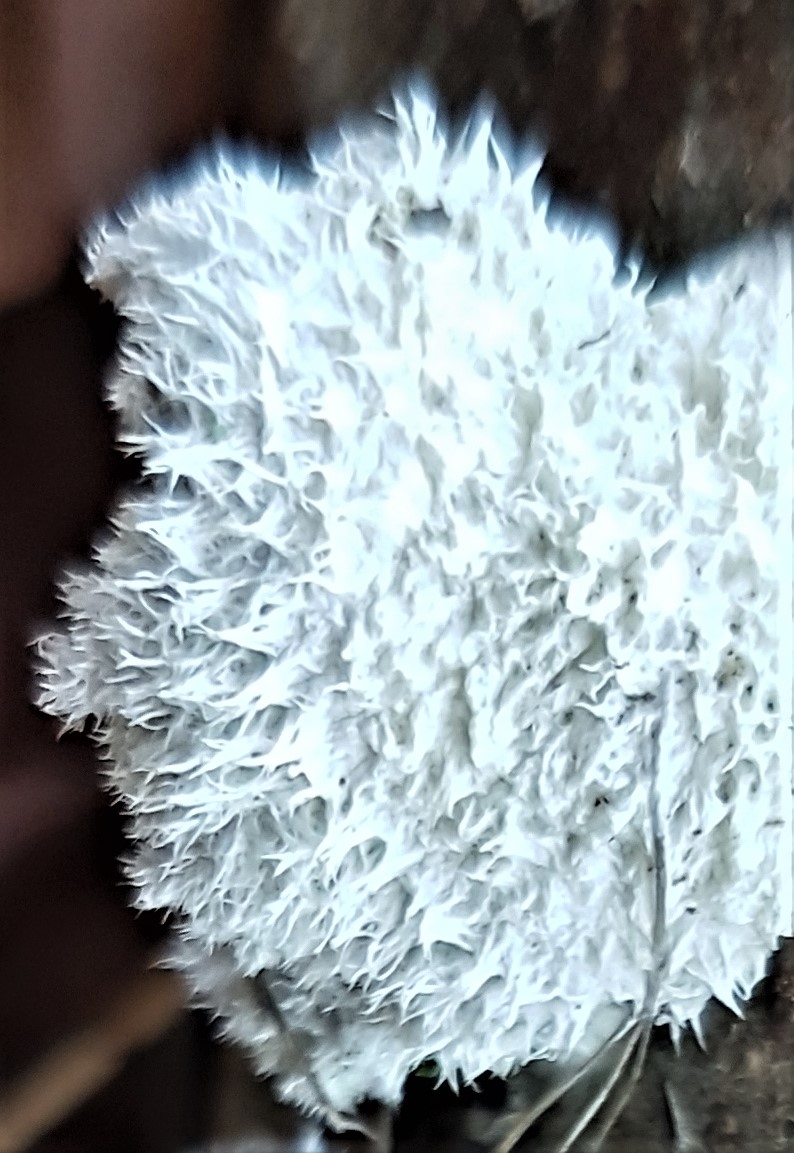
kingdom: Fungi
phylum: Basidiomycota
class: Agaricomycetes
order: Agaricales
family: Schizophyllaceae
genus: Schizophyllum
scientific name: Schizophyllum commune
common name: kløvblad
